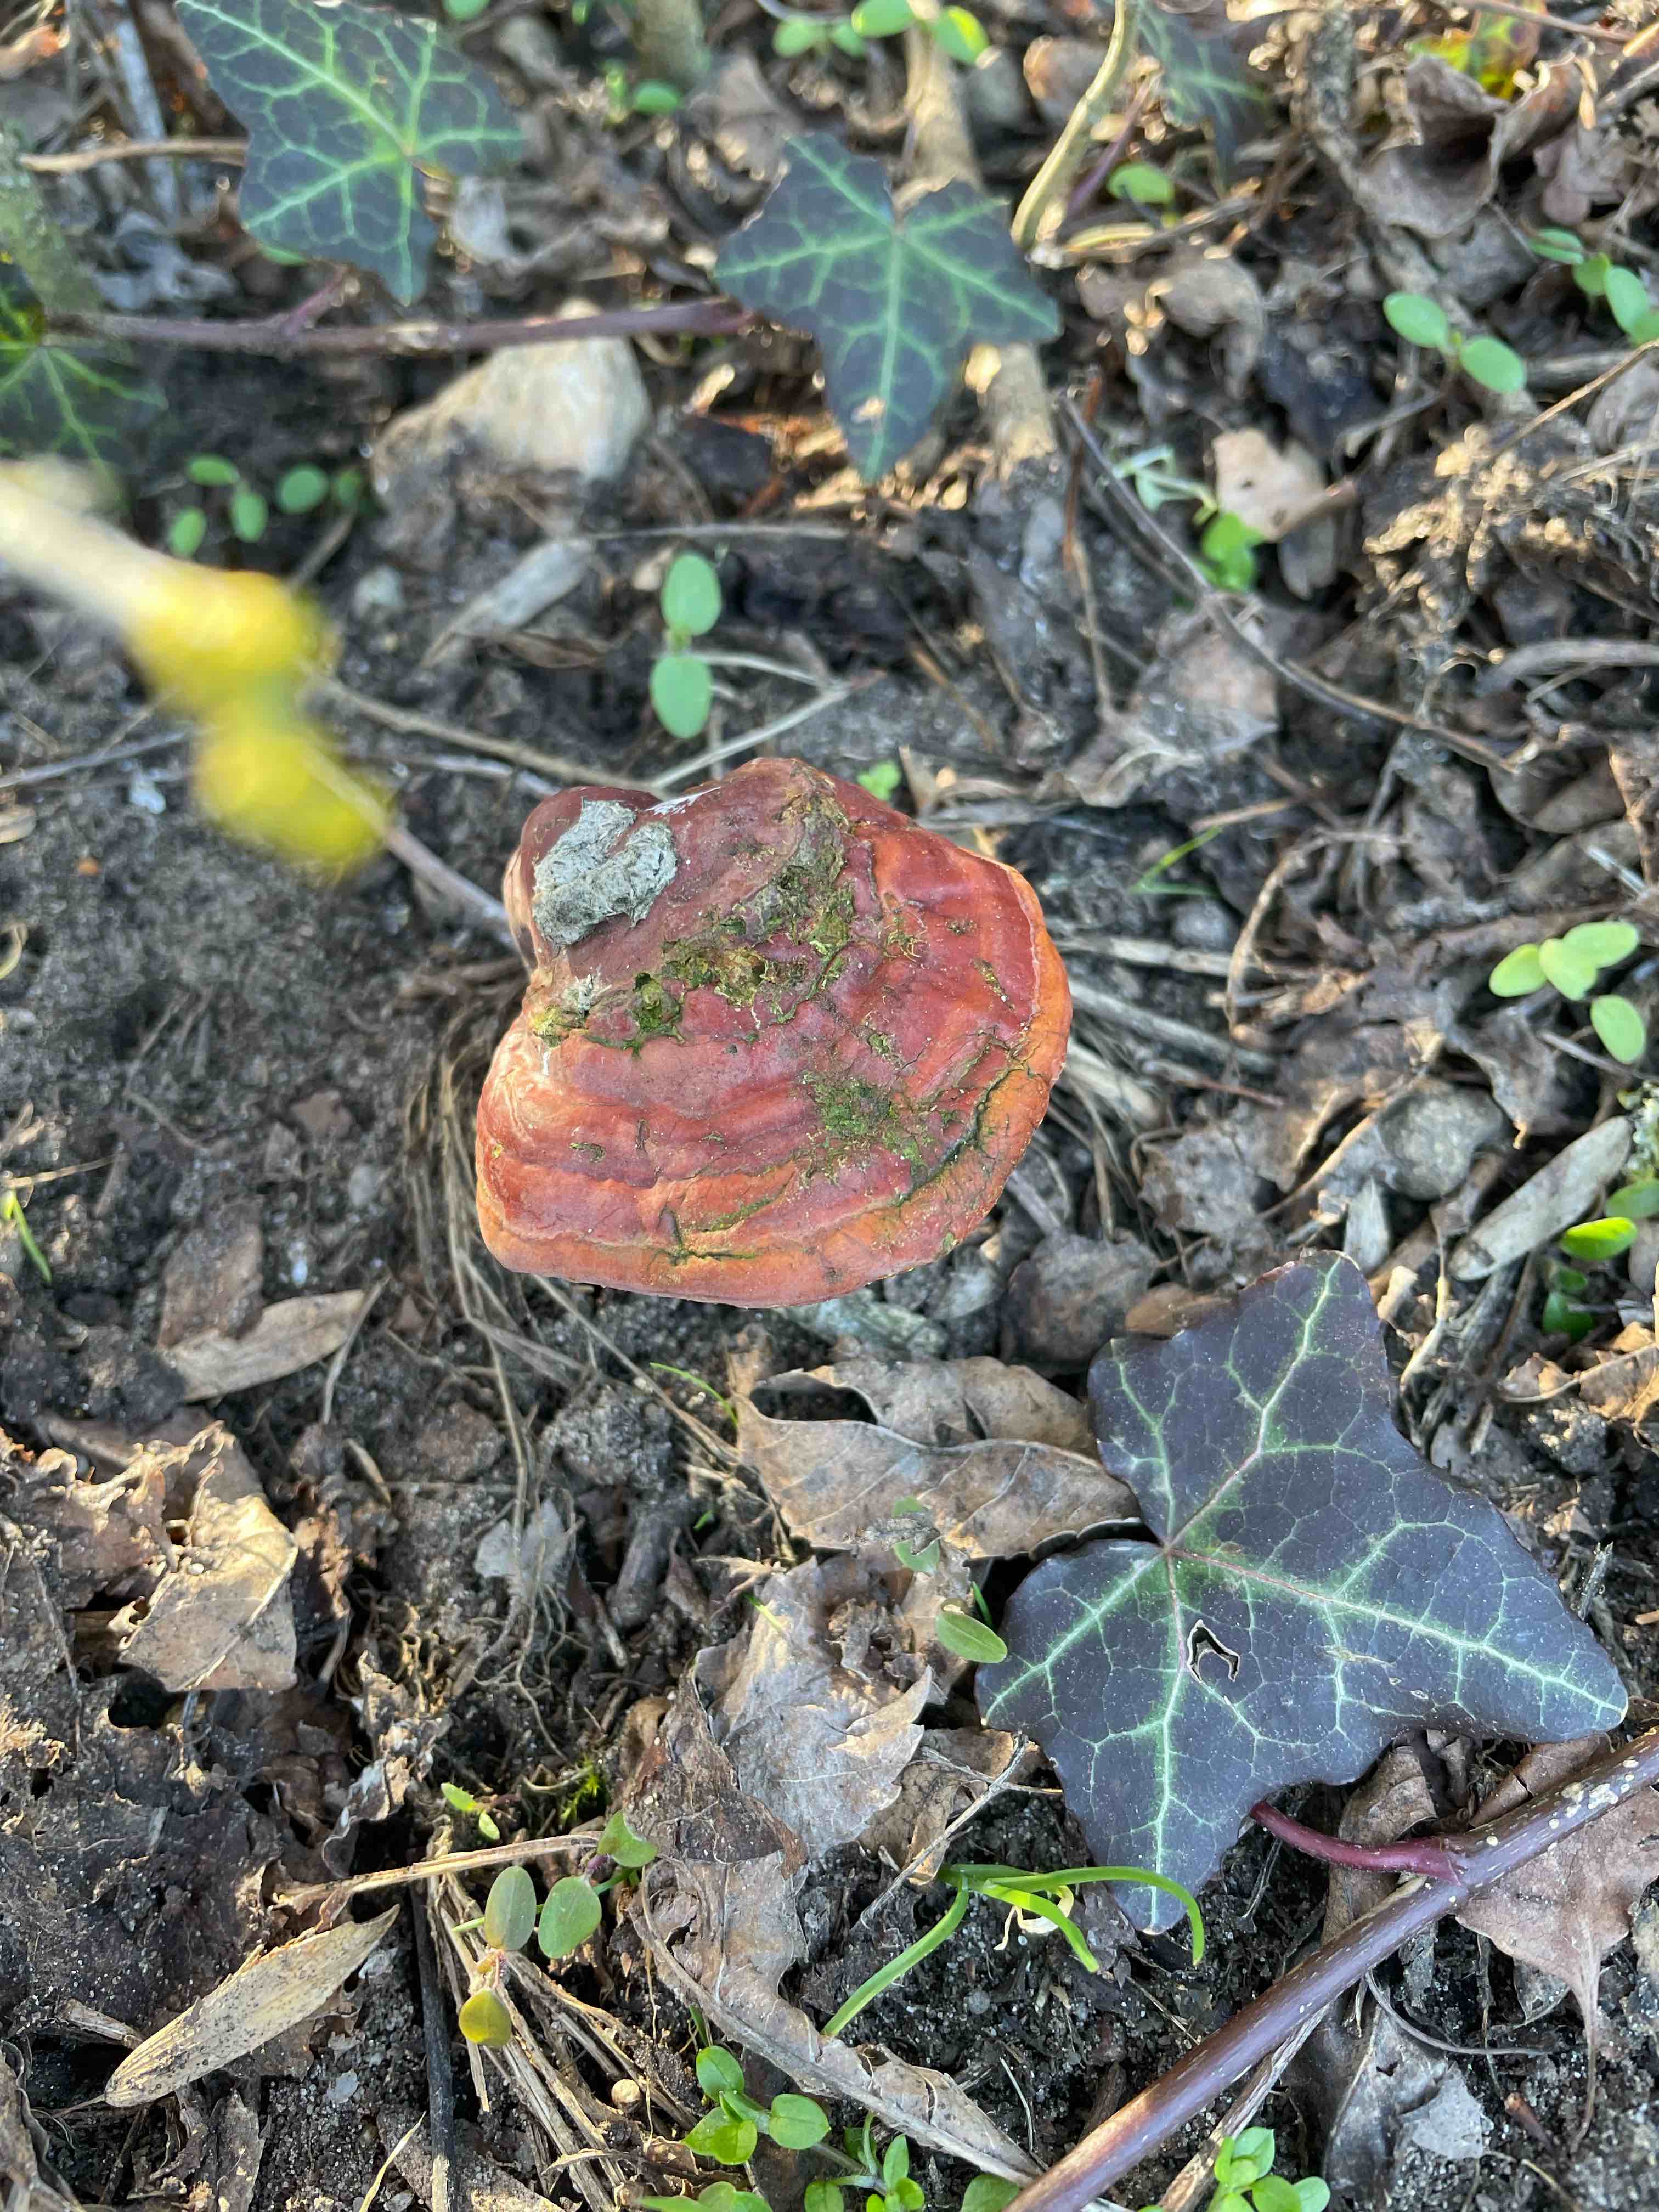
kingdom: Fungi
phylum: Basidiomycota
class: Agaricomycetes
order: Polyporales
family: Polyporaceae
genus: Ganoderma
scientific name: Ganoderma lucidum
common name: skinnende lakporesvamp
